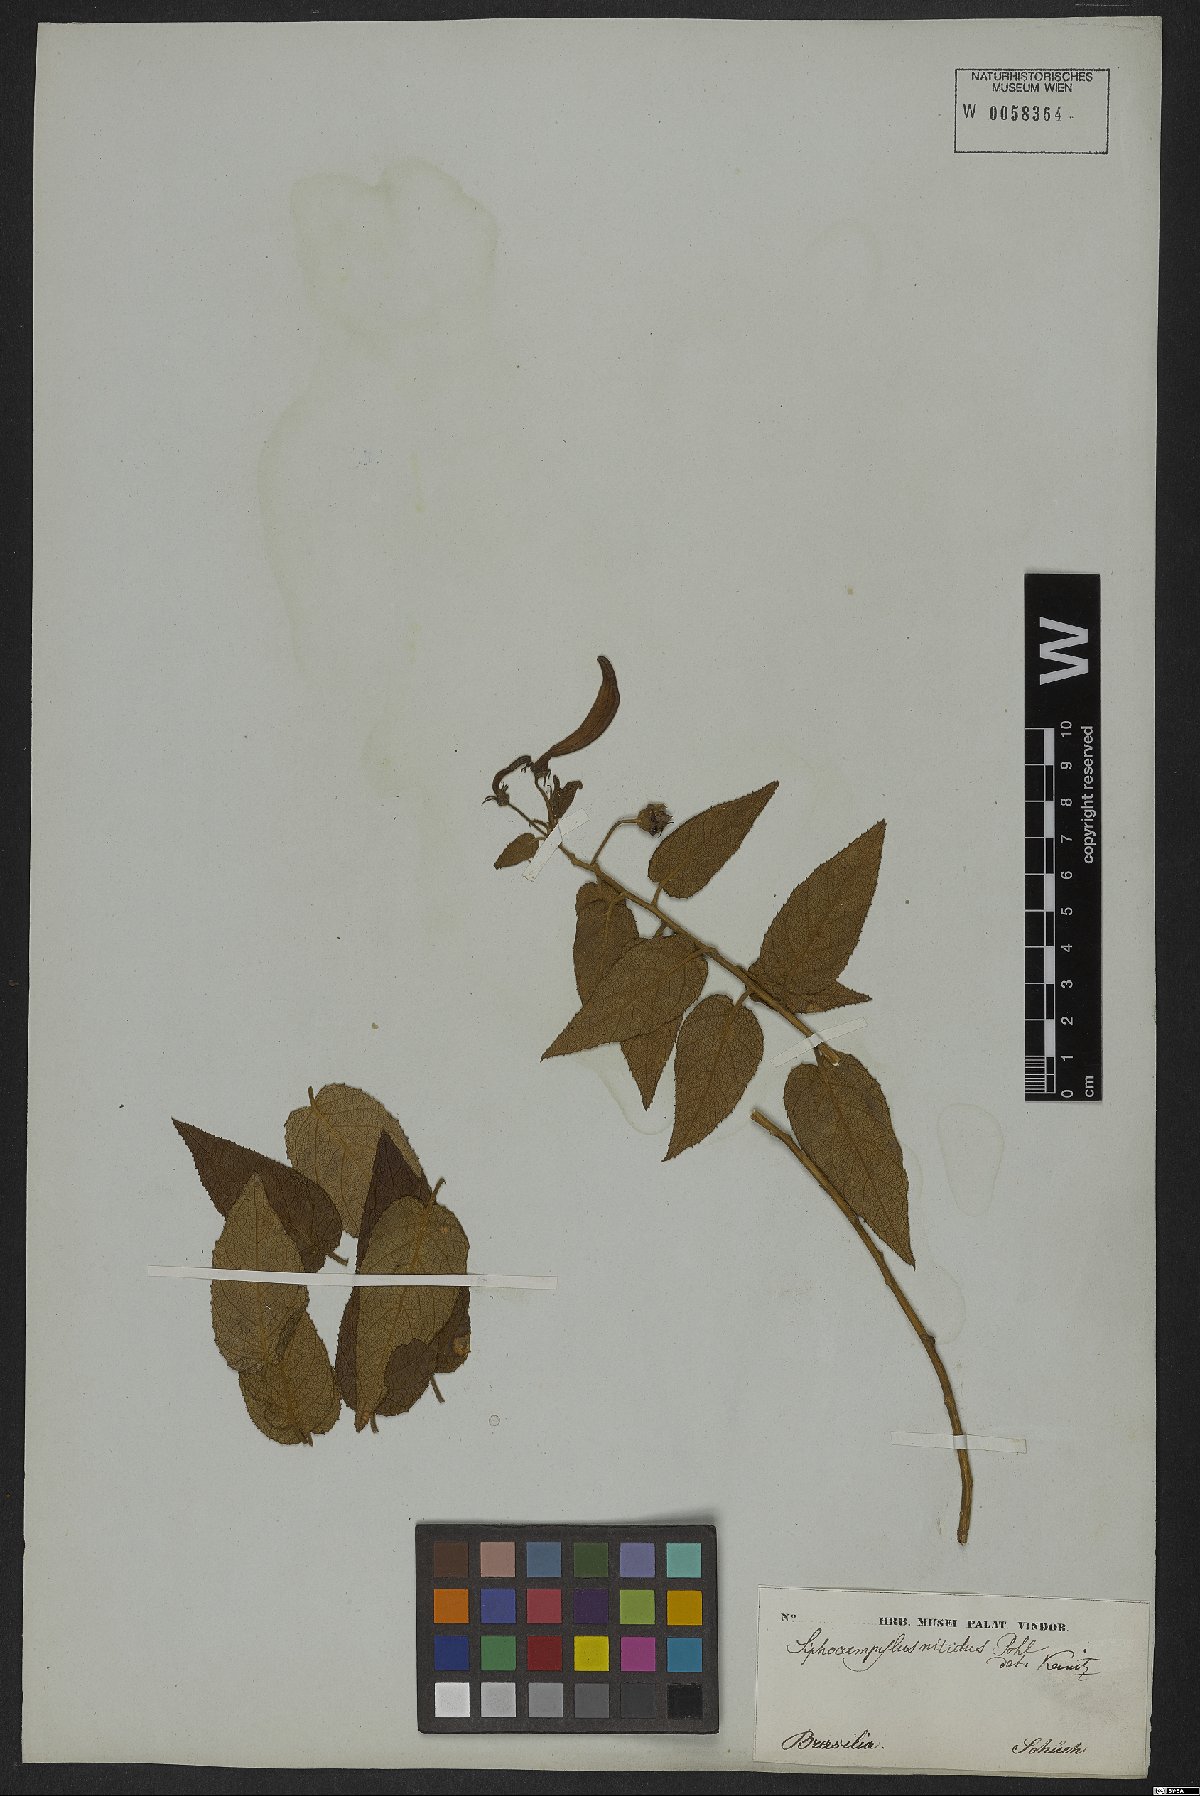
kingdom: Plantae
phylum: Tracheophyta
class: Magnoliopsida
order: Asterales
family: Campanulaceae
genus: Siphocampylus
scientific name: Siphocampylus nitidus
